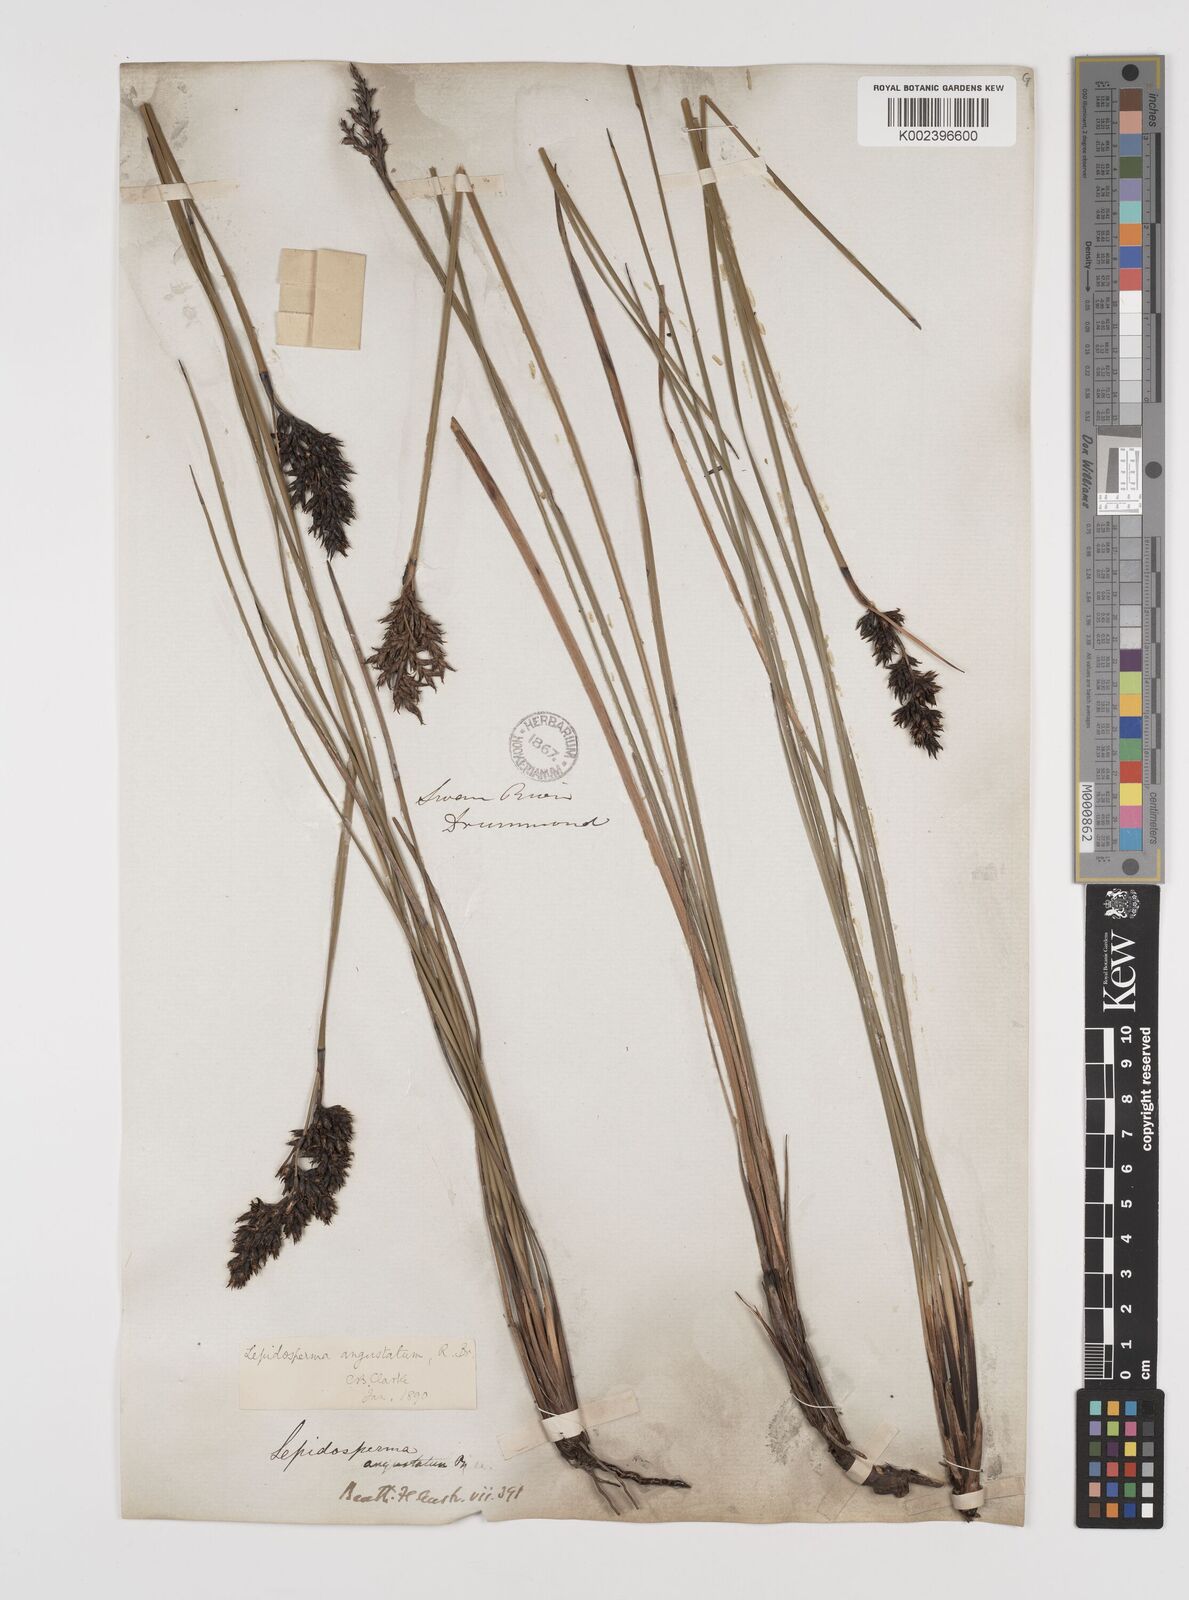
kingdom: Plantae
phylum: Tracheophyta
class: Liliopsida
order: Poales
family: Cyperaceae
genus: Lepidosperma
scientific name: Lepidosperma angustatum
